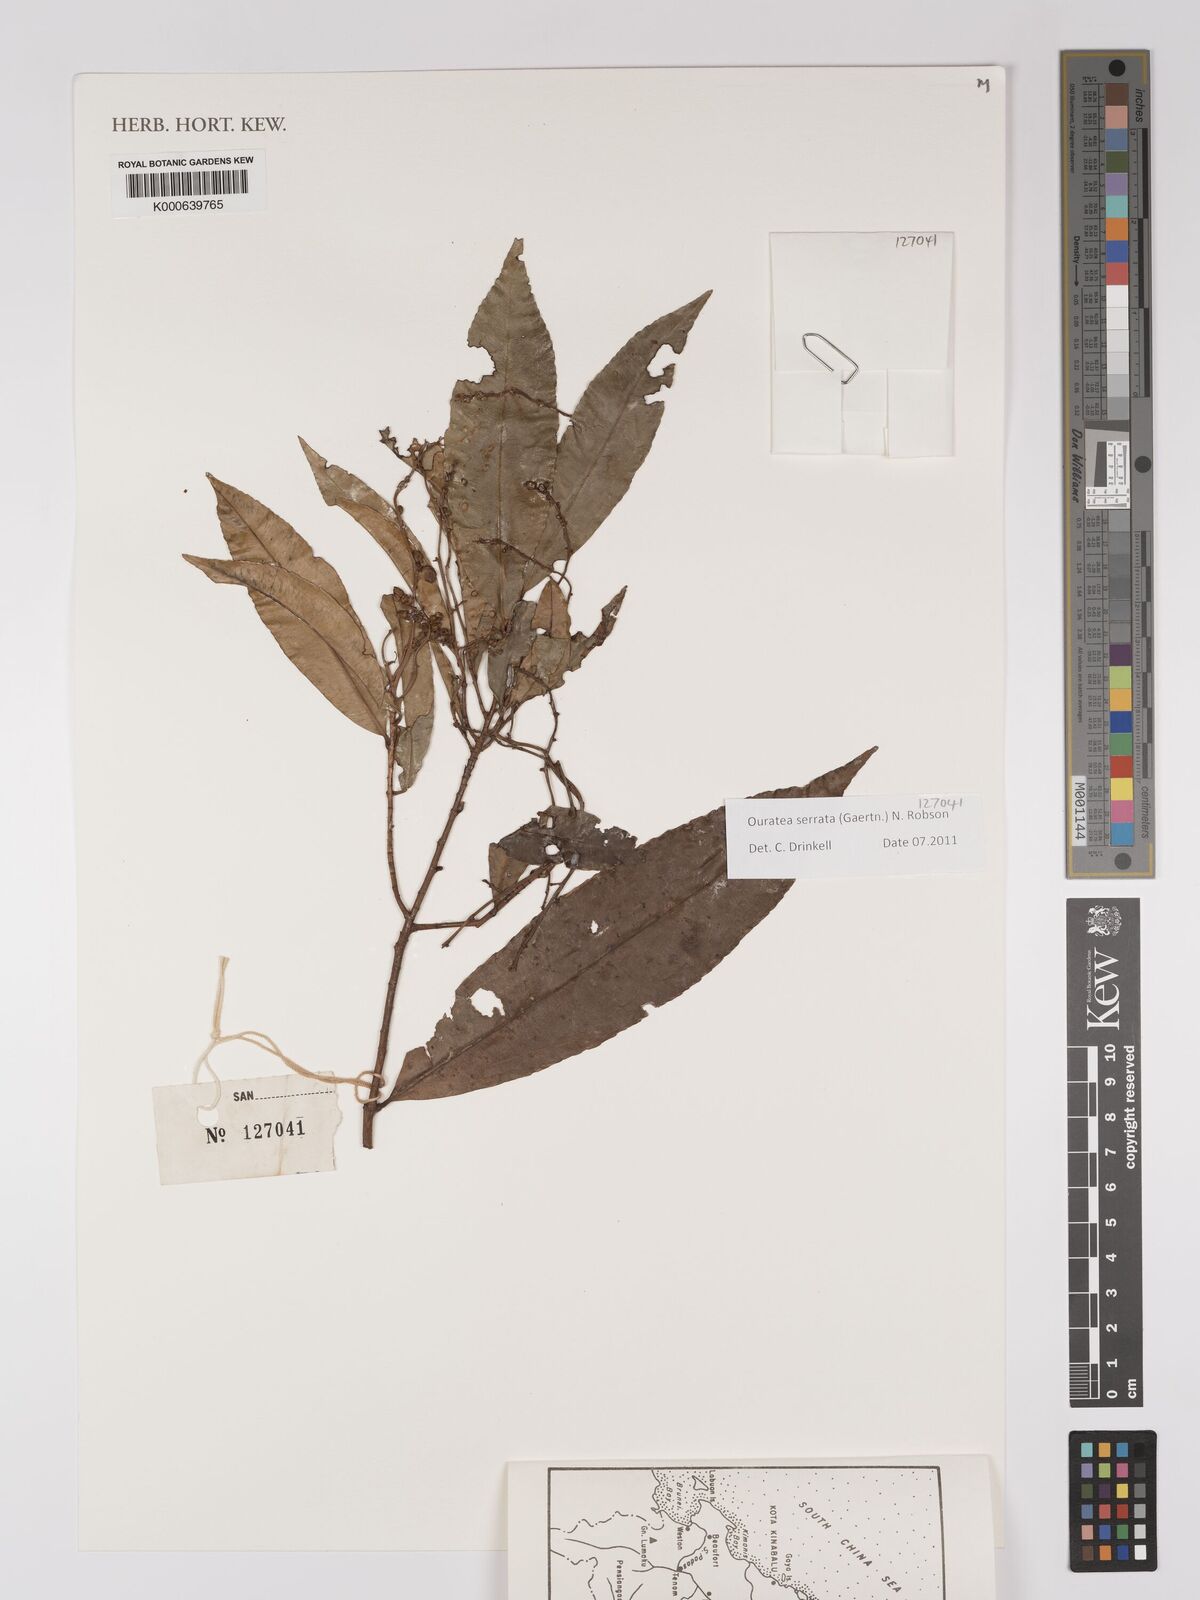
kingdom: Plantae
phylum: Tracheophyta
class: Magnoliopsida
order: Malpighiales
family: Ochnaceae
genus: Gomphia
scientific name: Gomphia serrata
